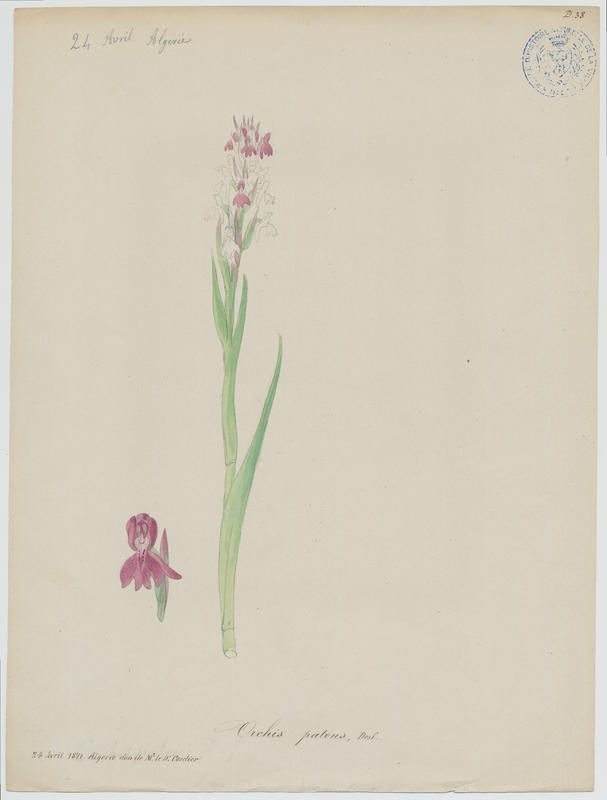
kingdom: Plantae
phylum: Tracheophyta
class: Liliopsida
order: Asparagales
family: Orchidaceae
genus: Orchis
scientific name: Orchis spitzelii
